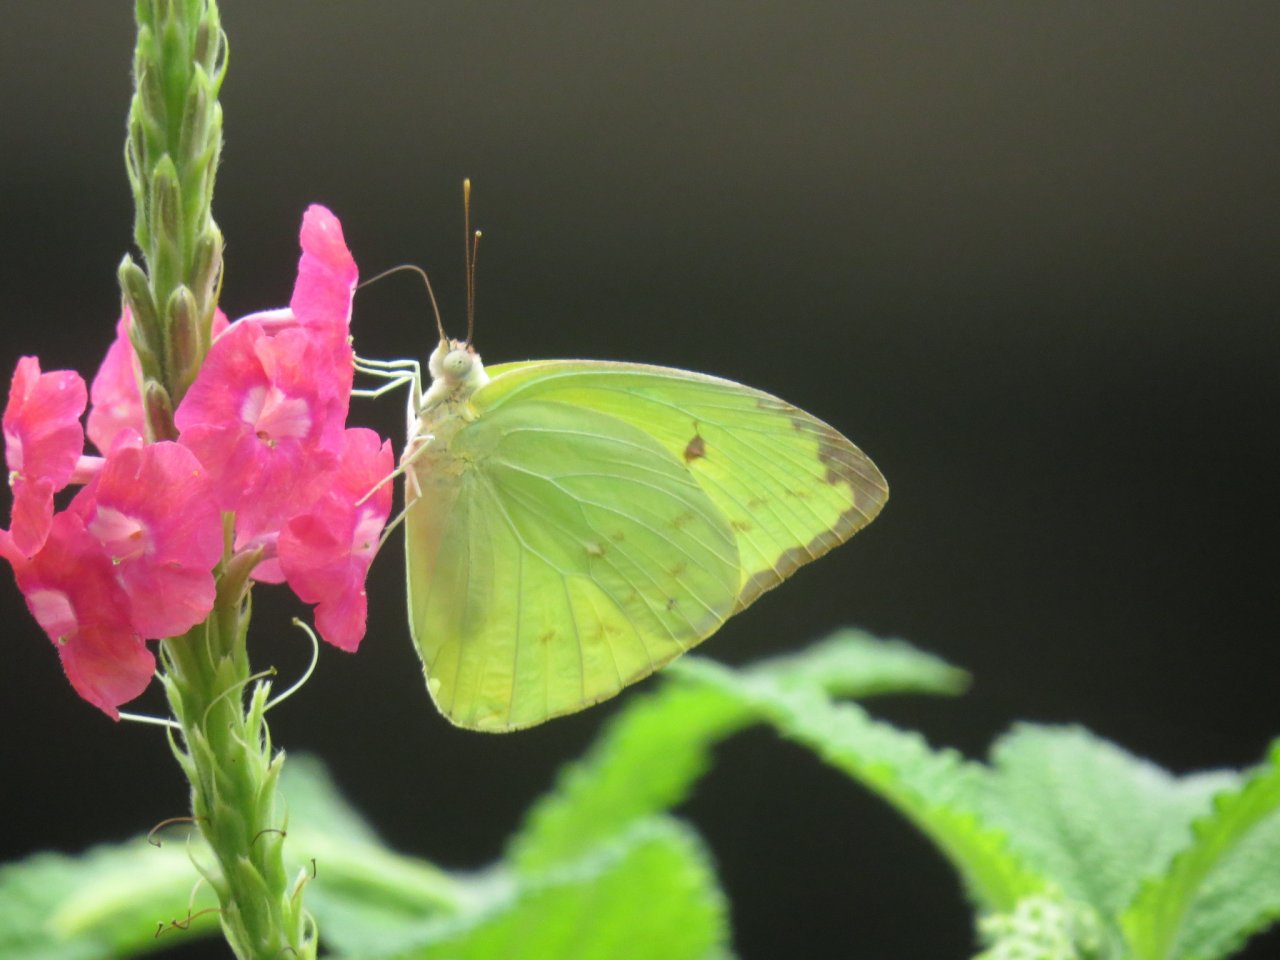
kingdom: Animalia
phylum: Arthropoda
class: Insecta
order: Lepidoptera
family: Pieridae
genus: Aphrissa
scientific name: Aphrissa statira
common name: Statira Sulphur
